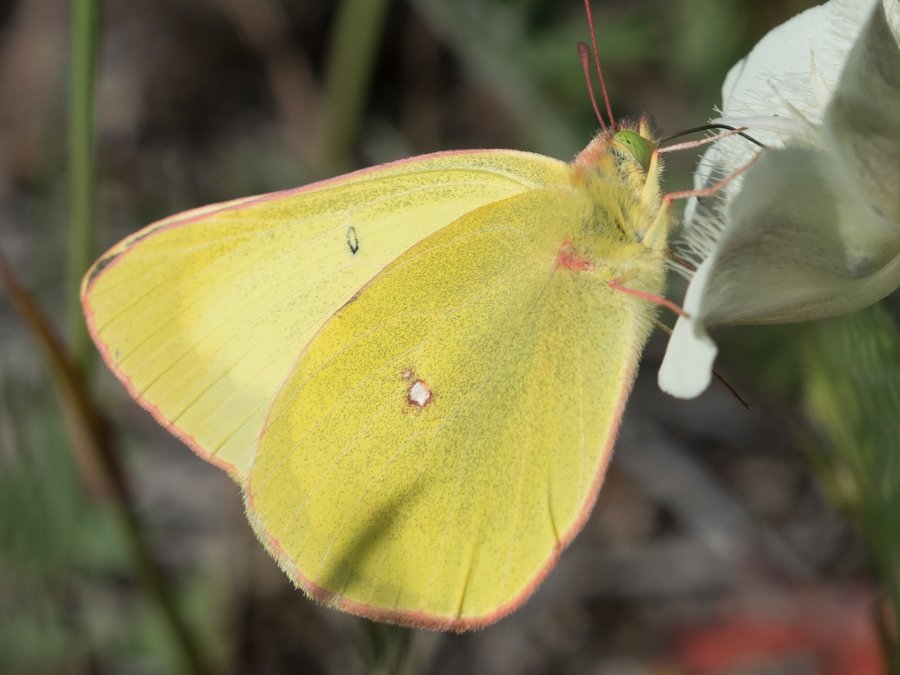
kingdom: Animalia
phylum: Arthropoda
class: Insecta
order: Lepidoptera
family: Pieridae
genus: Colias
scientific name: Colias interior
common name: Pink-edged Sulphur
